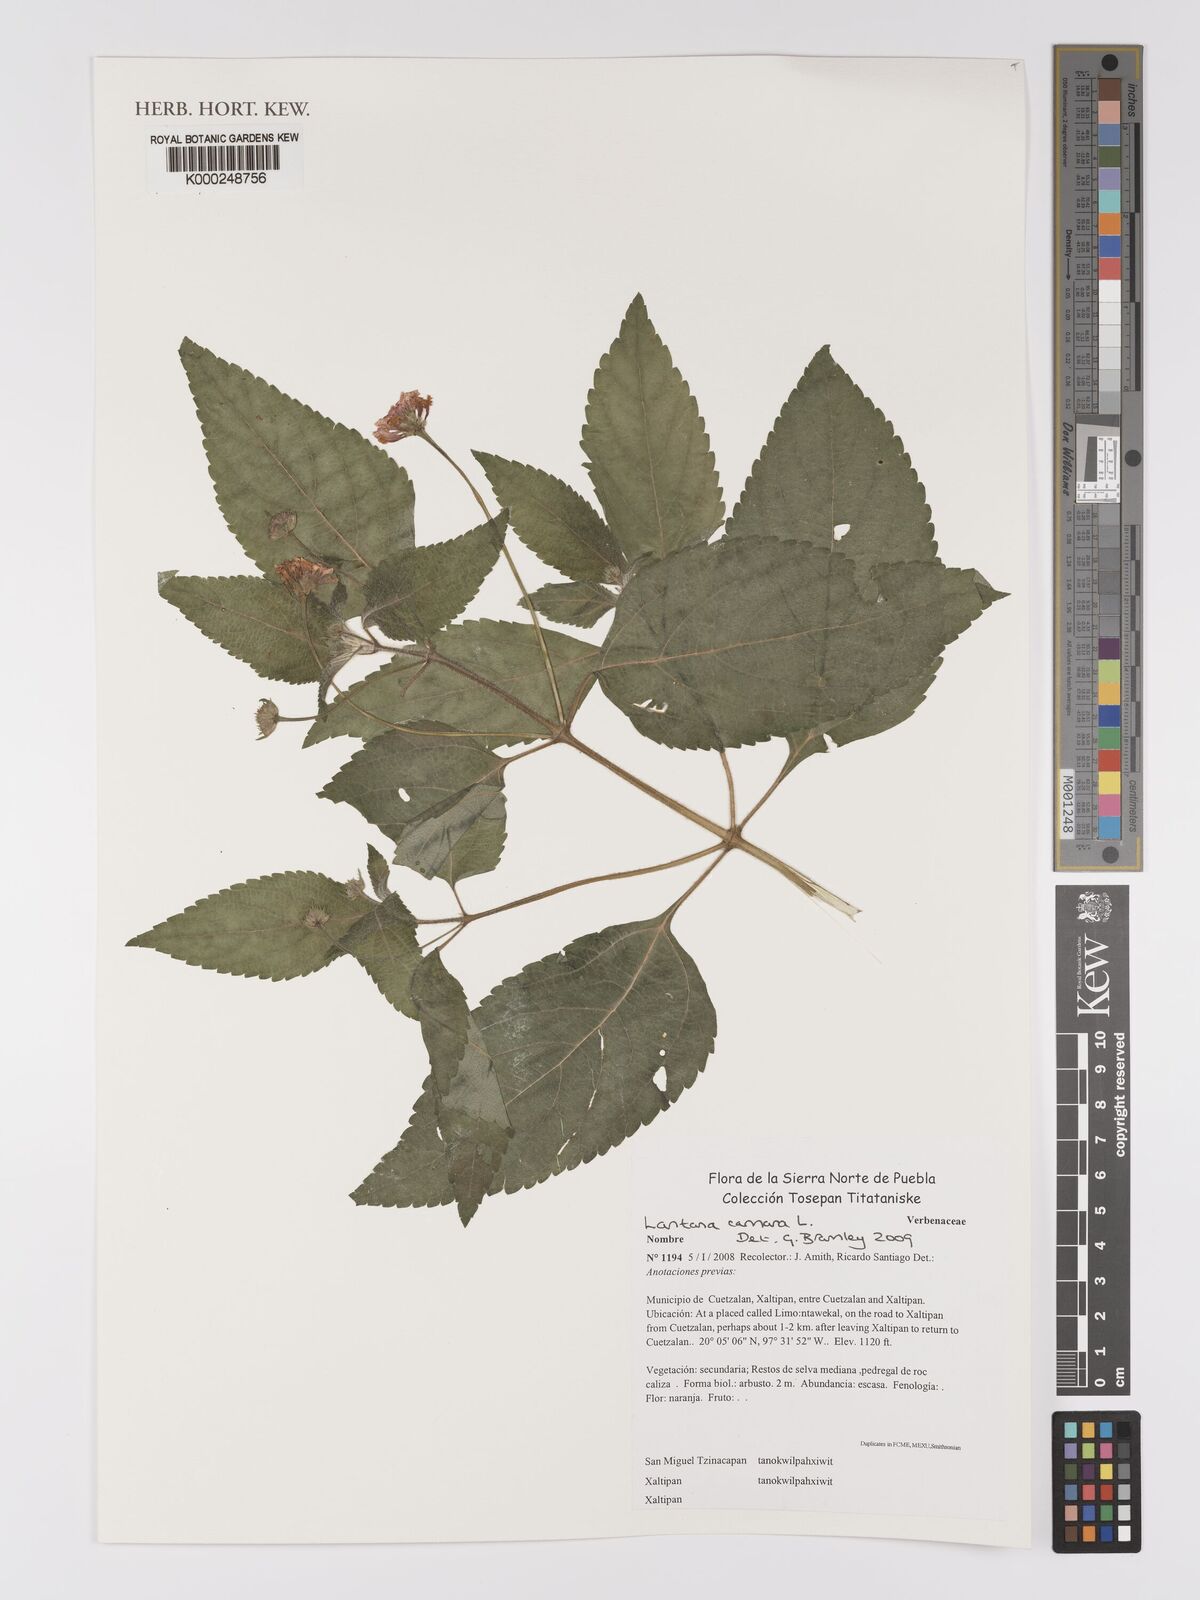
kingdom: Plantae
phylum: Tracheophyta
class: Magnoliopsida
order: Lamiales
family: Verbenaceae
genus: Lantana
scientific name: Lantana camara
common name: Lantana
